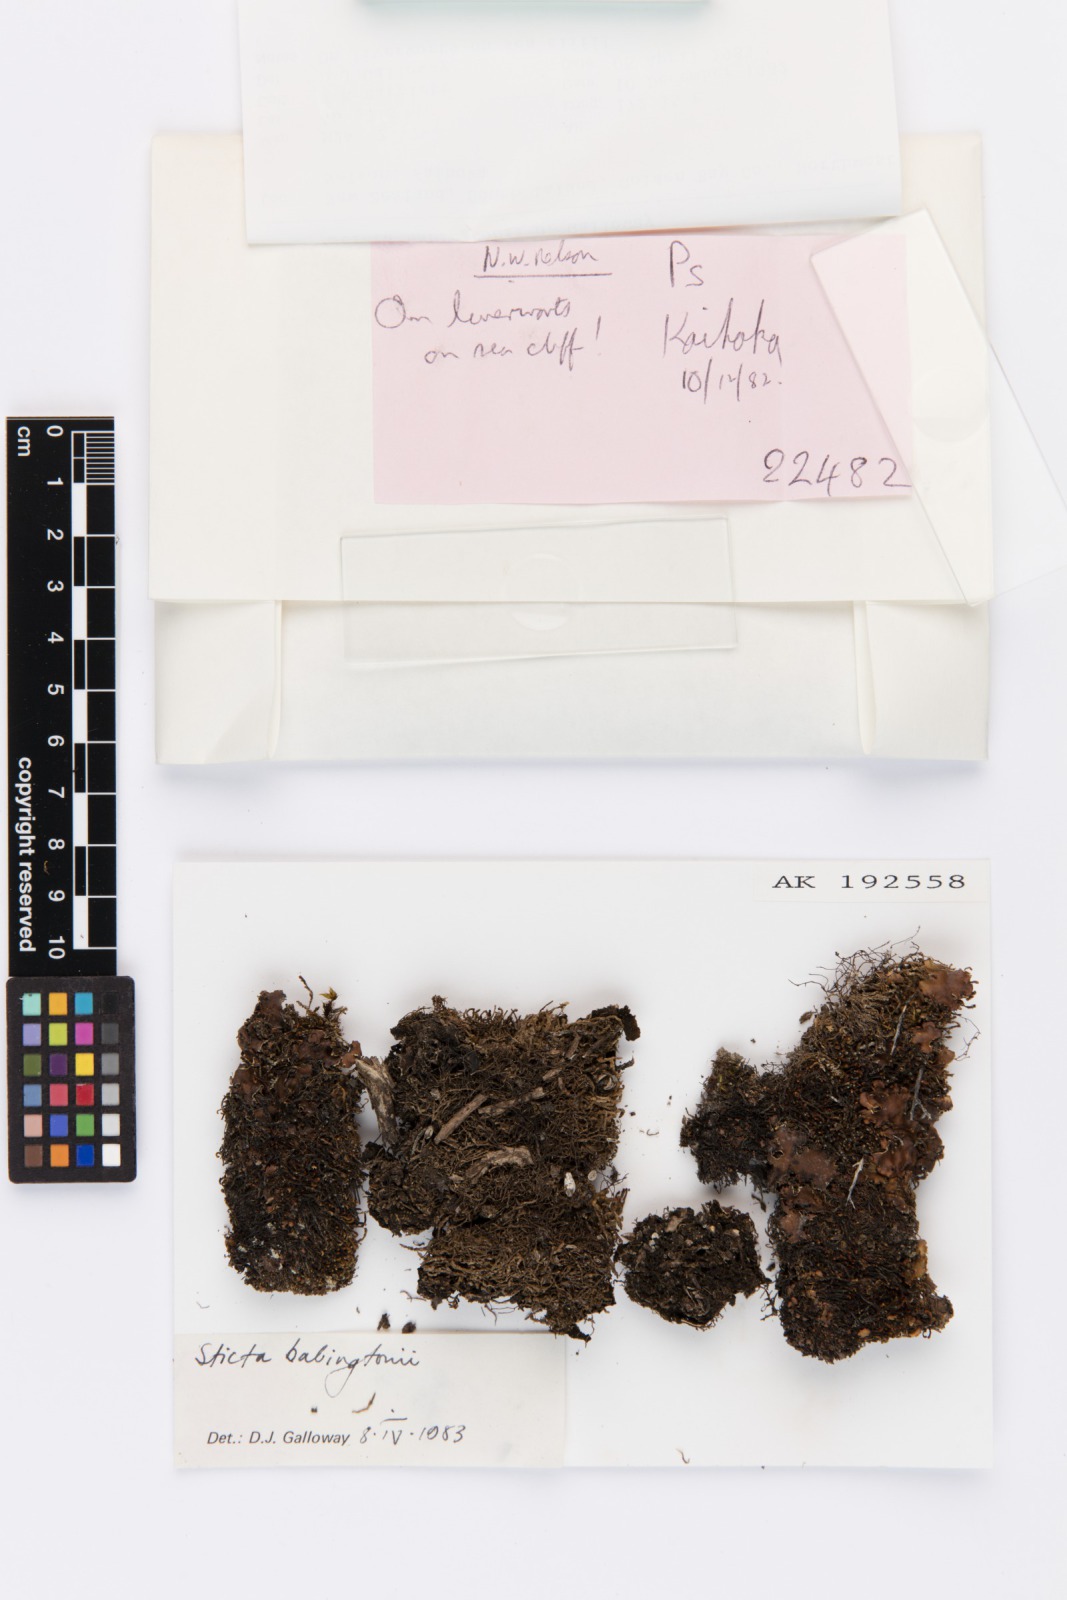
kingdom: Fungi
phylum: Ascomycota
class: Lecanoromycetes
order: Peltigerales
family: Lobariaceae
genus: Sticta
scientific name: Sticta babingtonii
